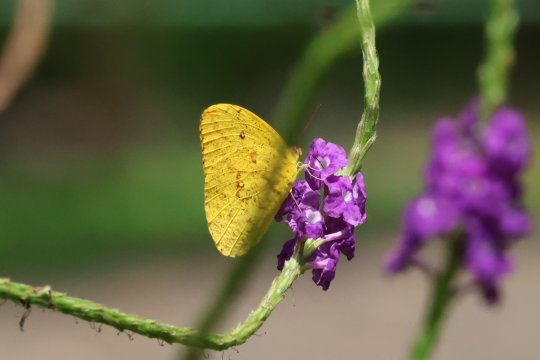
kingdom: Animalia
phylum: Arthropoda
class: Insecta
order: Lepidoptera
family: Pieridae
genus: Phoebis
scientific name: Phoebis argante
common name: Apricot Sulphur
